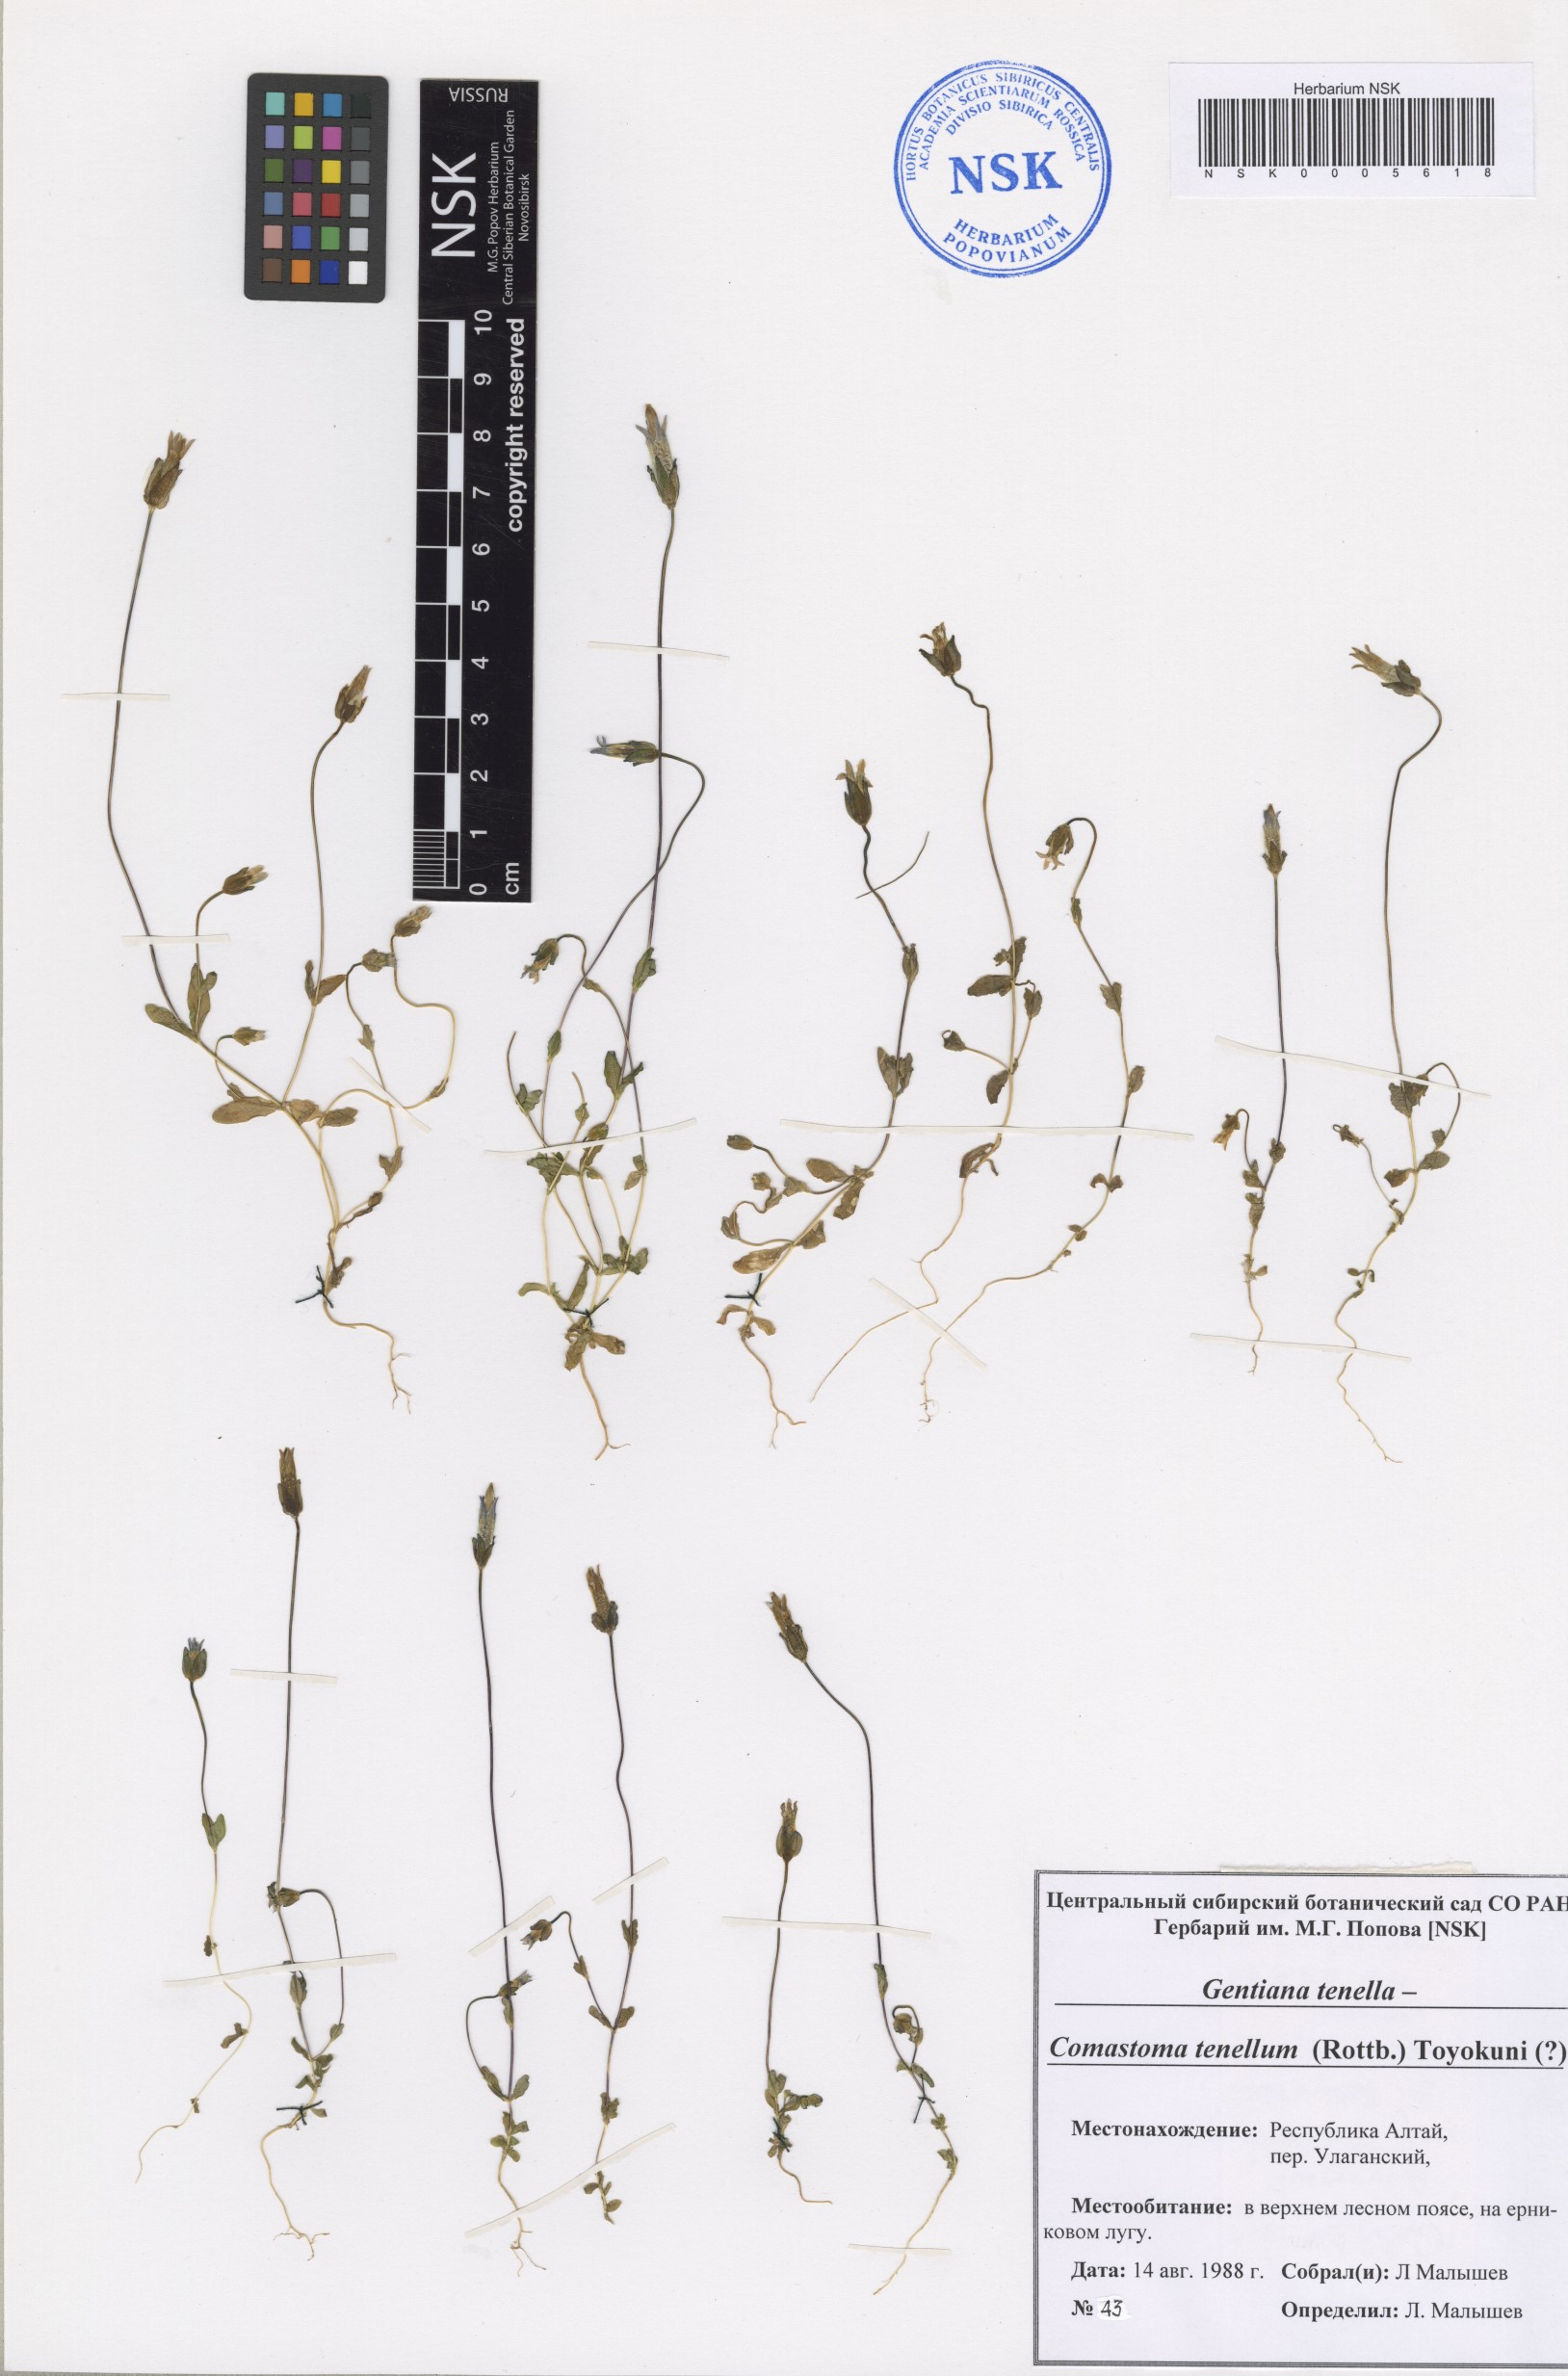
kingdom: Plantae
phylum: Tracheophyta
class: Magnoliopsida
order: Gentianales
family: Gentianaceae
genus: Comastoma
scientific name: Comastoma tenellum
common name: Dane's dwarf gentian
